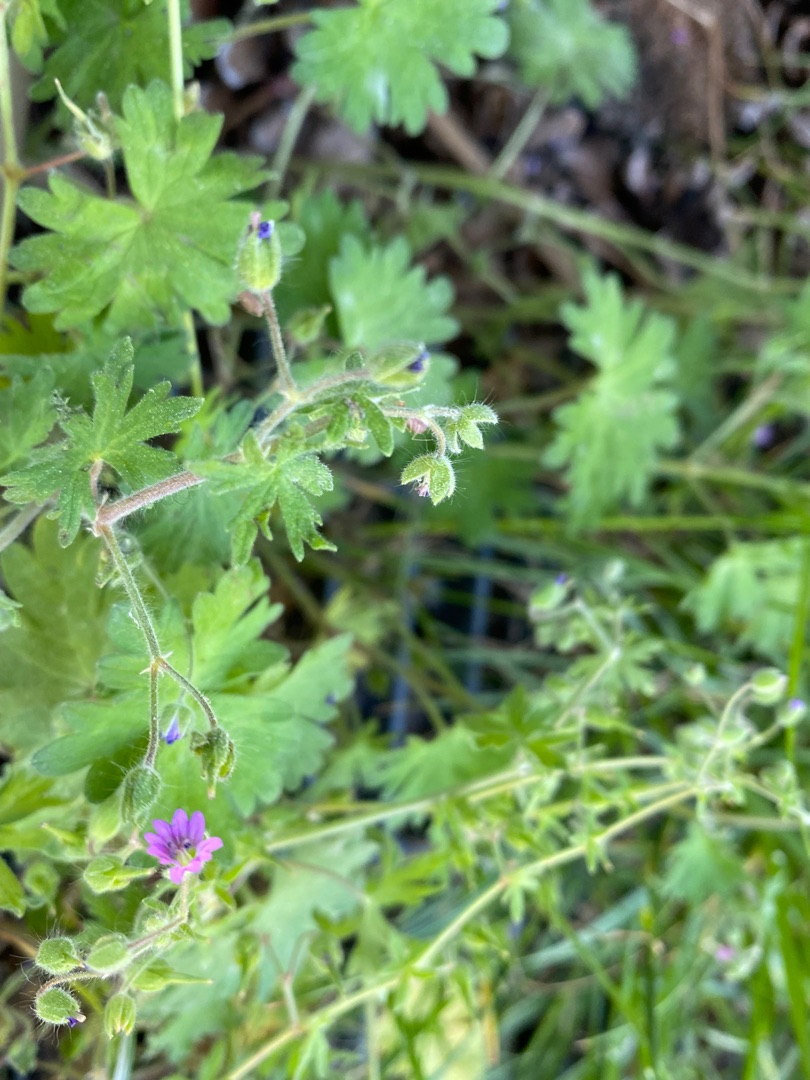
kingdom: Plantae
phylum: Tracheophyta
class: Magnoliopsida
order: Geraniales
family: Geraniaceae
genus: Geranium
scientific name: Geranium molle
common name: Blød storkenæb
